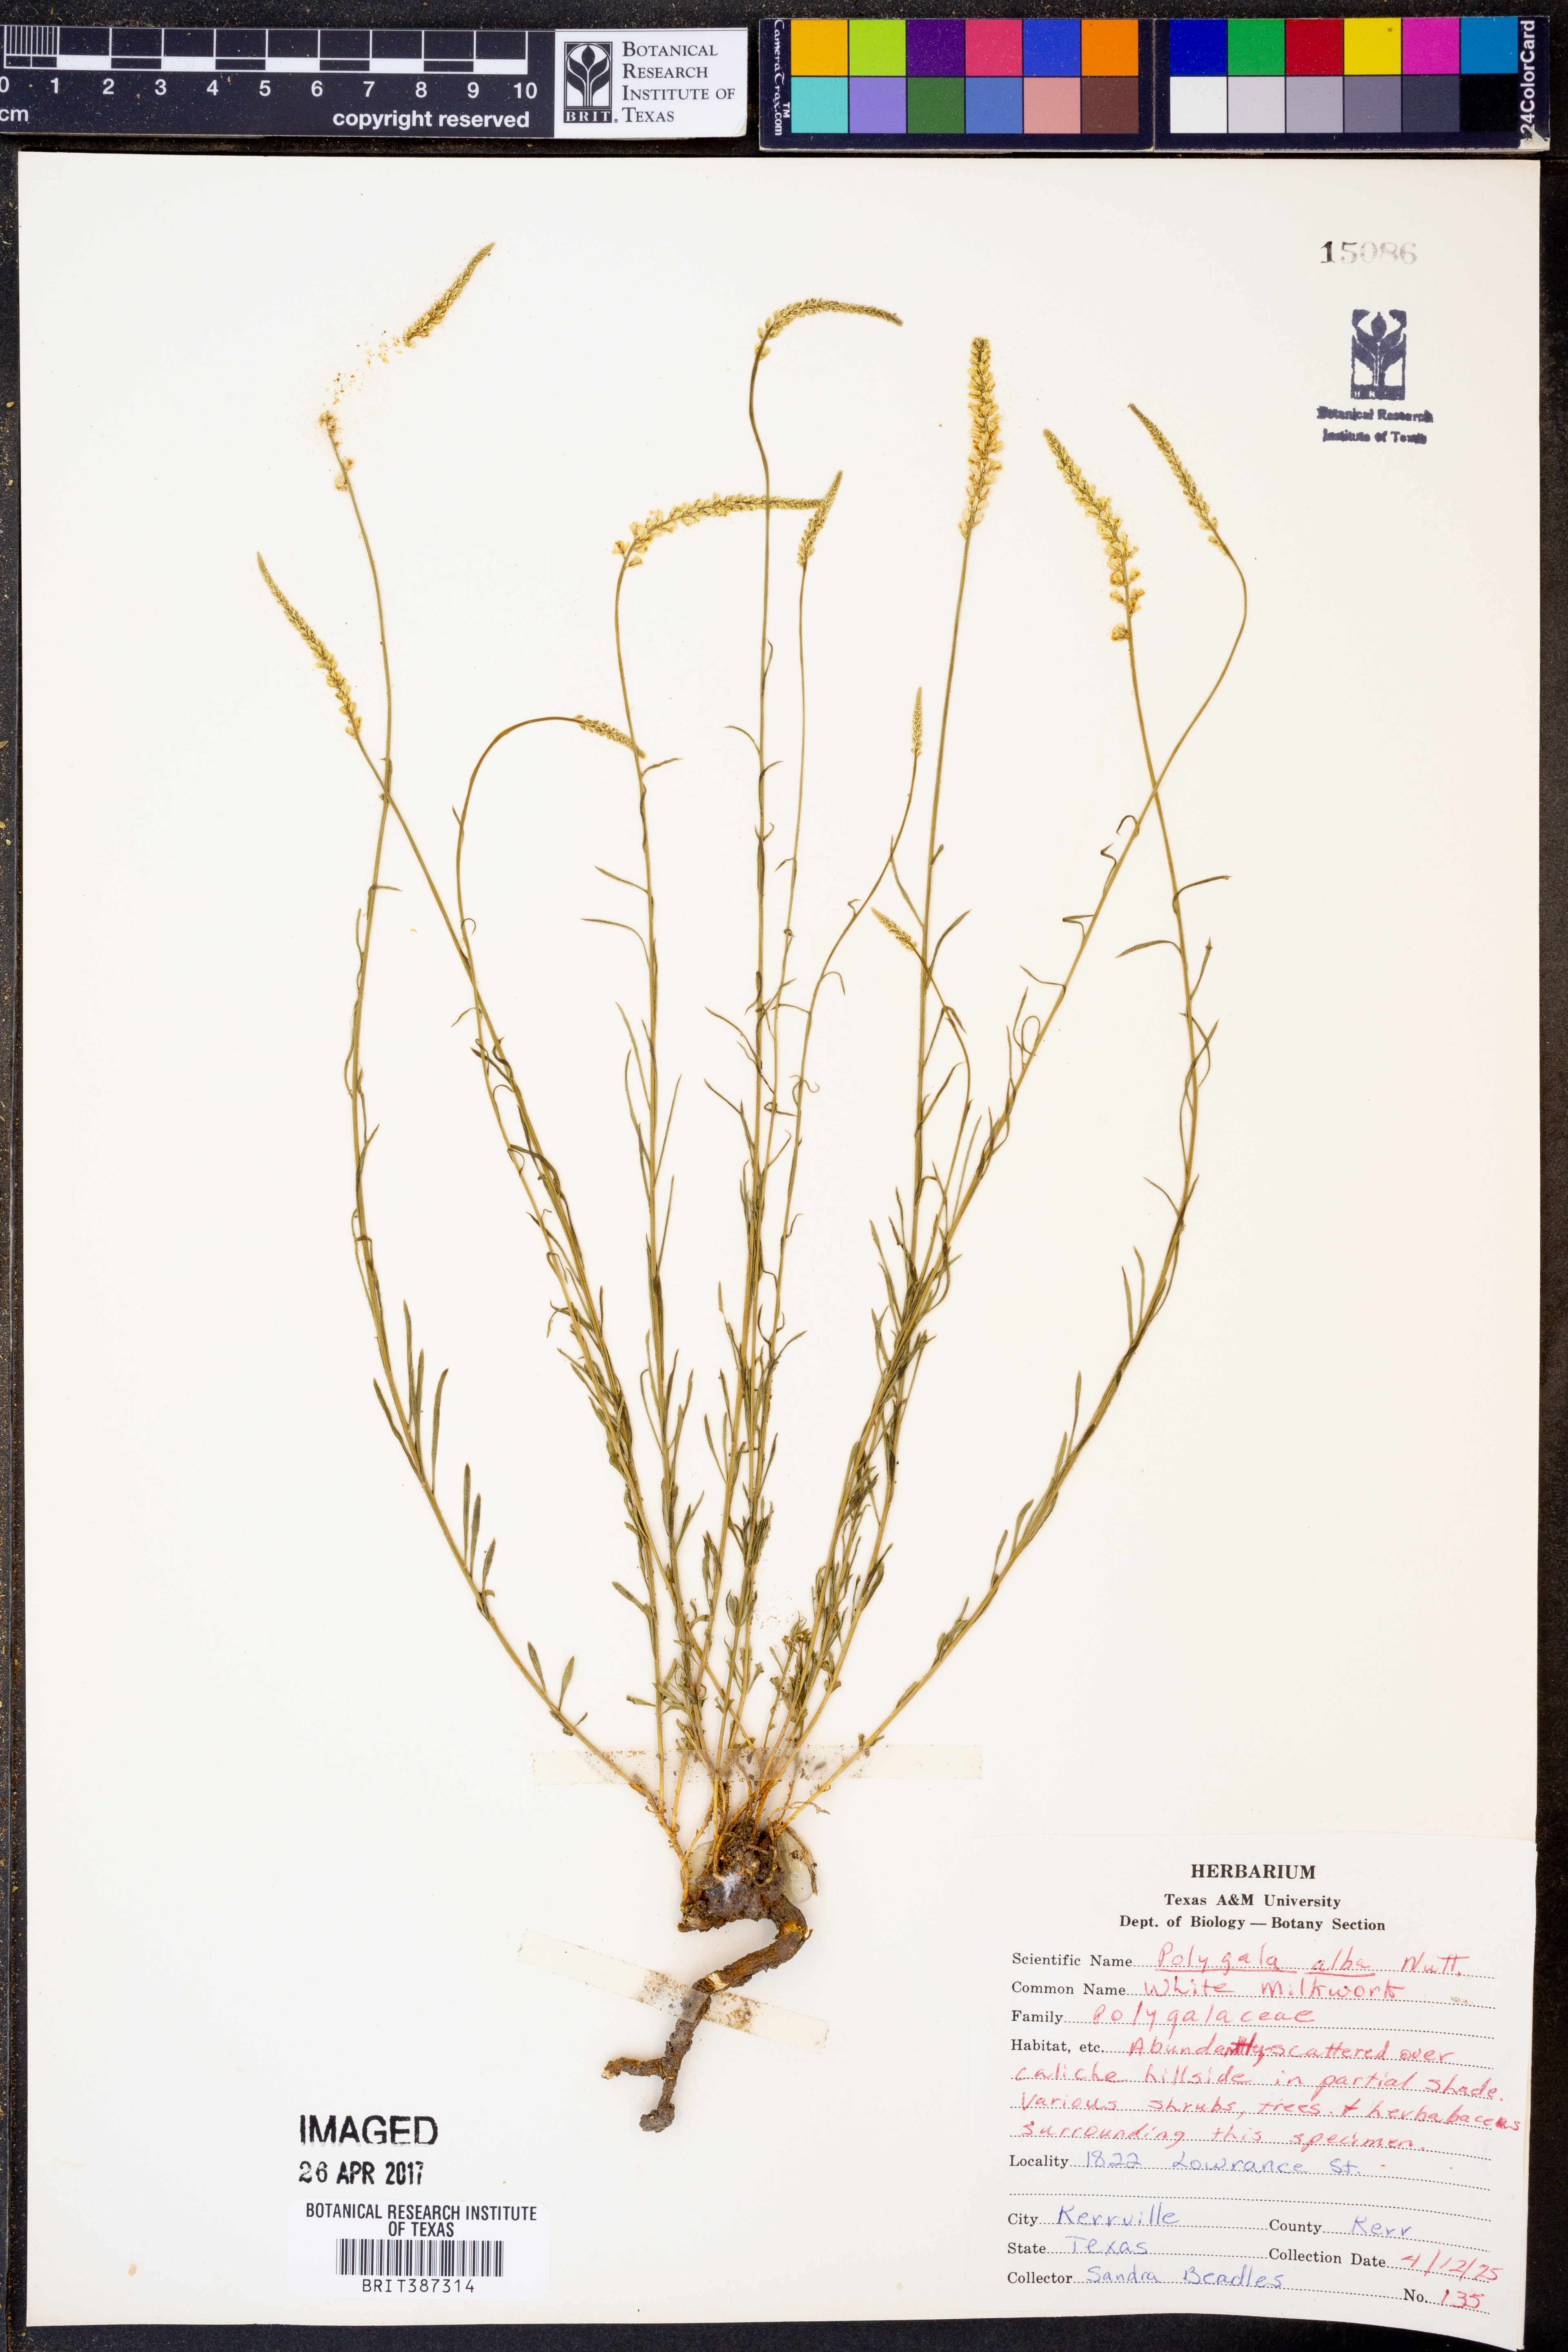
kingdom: Plantae
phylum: Tracheophyta
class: Magnoliopsida
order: Fabales
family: Polygalaceae
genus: Polygala
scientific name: Polygala alba
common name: White milkwort
